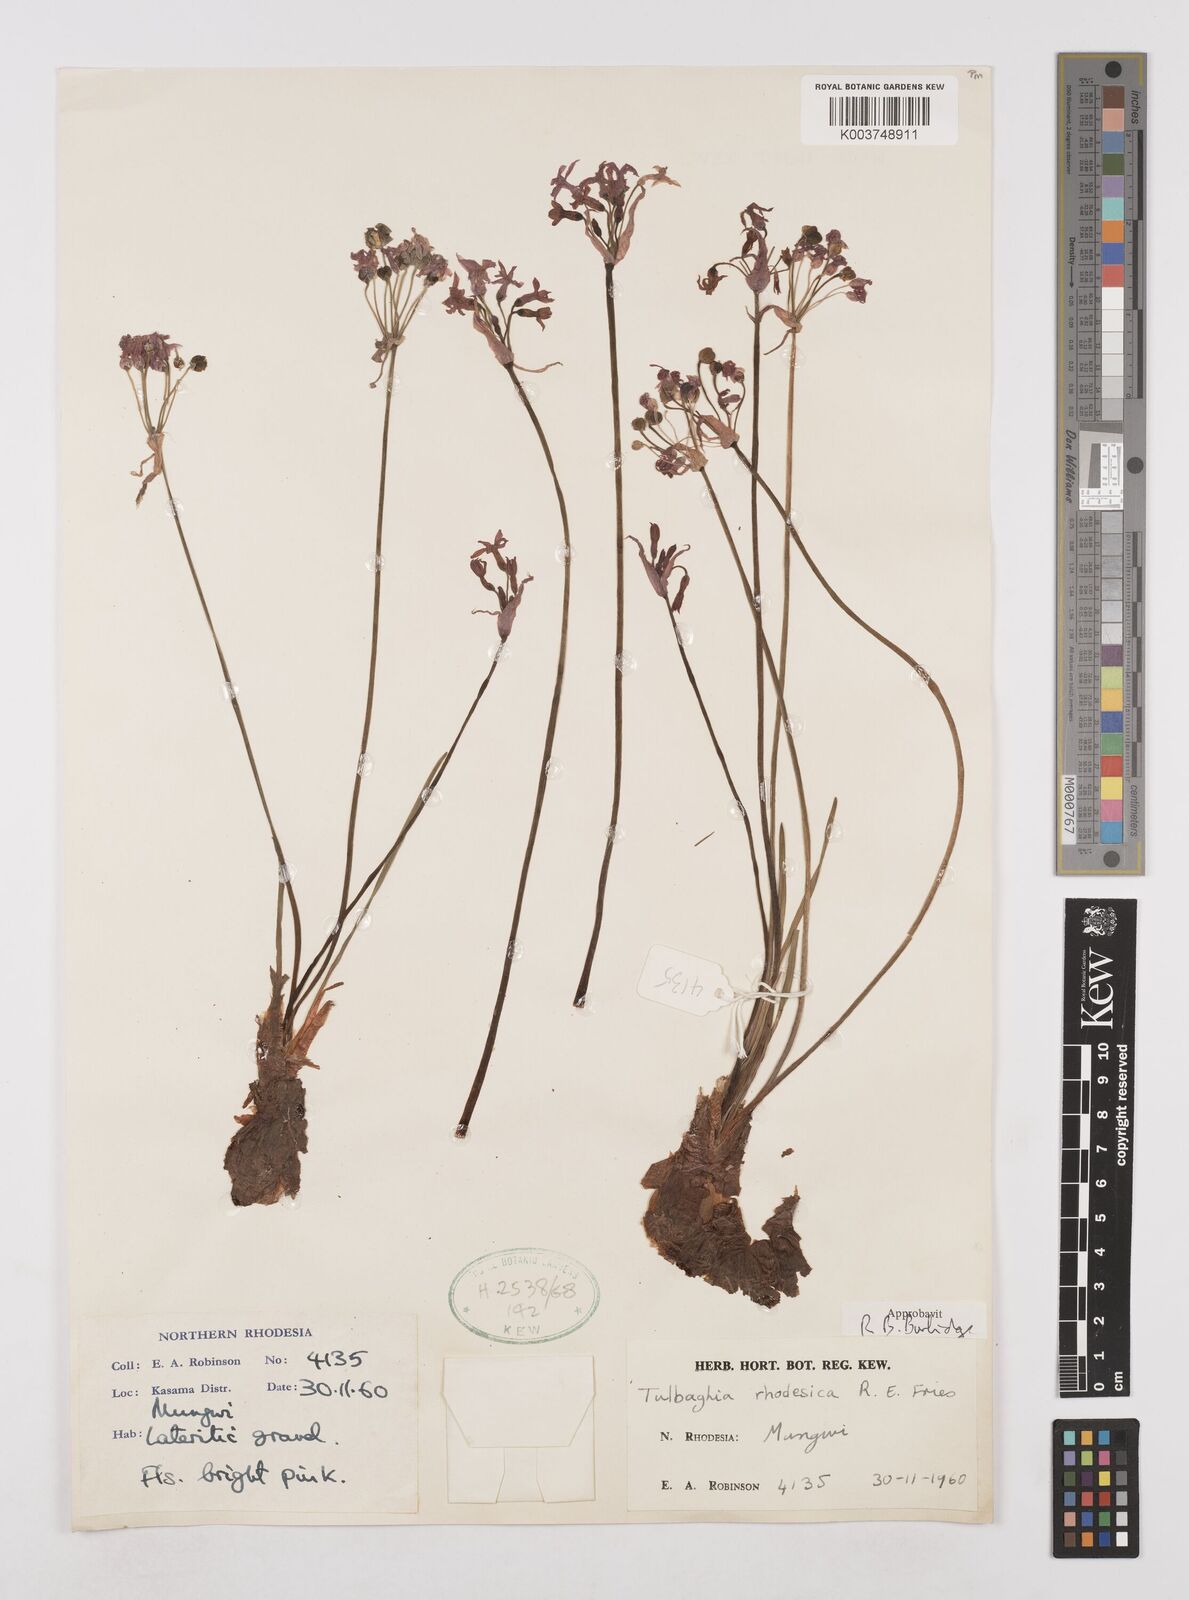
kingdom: Plantae
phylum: Tracheophyta
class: Liliopsida
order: Asparagales
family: Amaryllidaceae
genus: Tulbaghia
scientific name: Tulbaghia rhodesica
